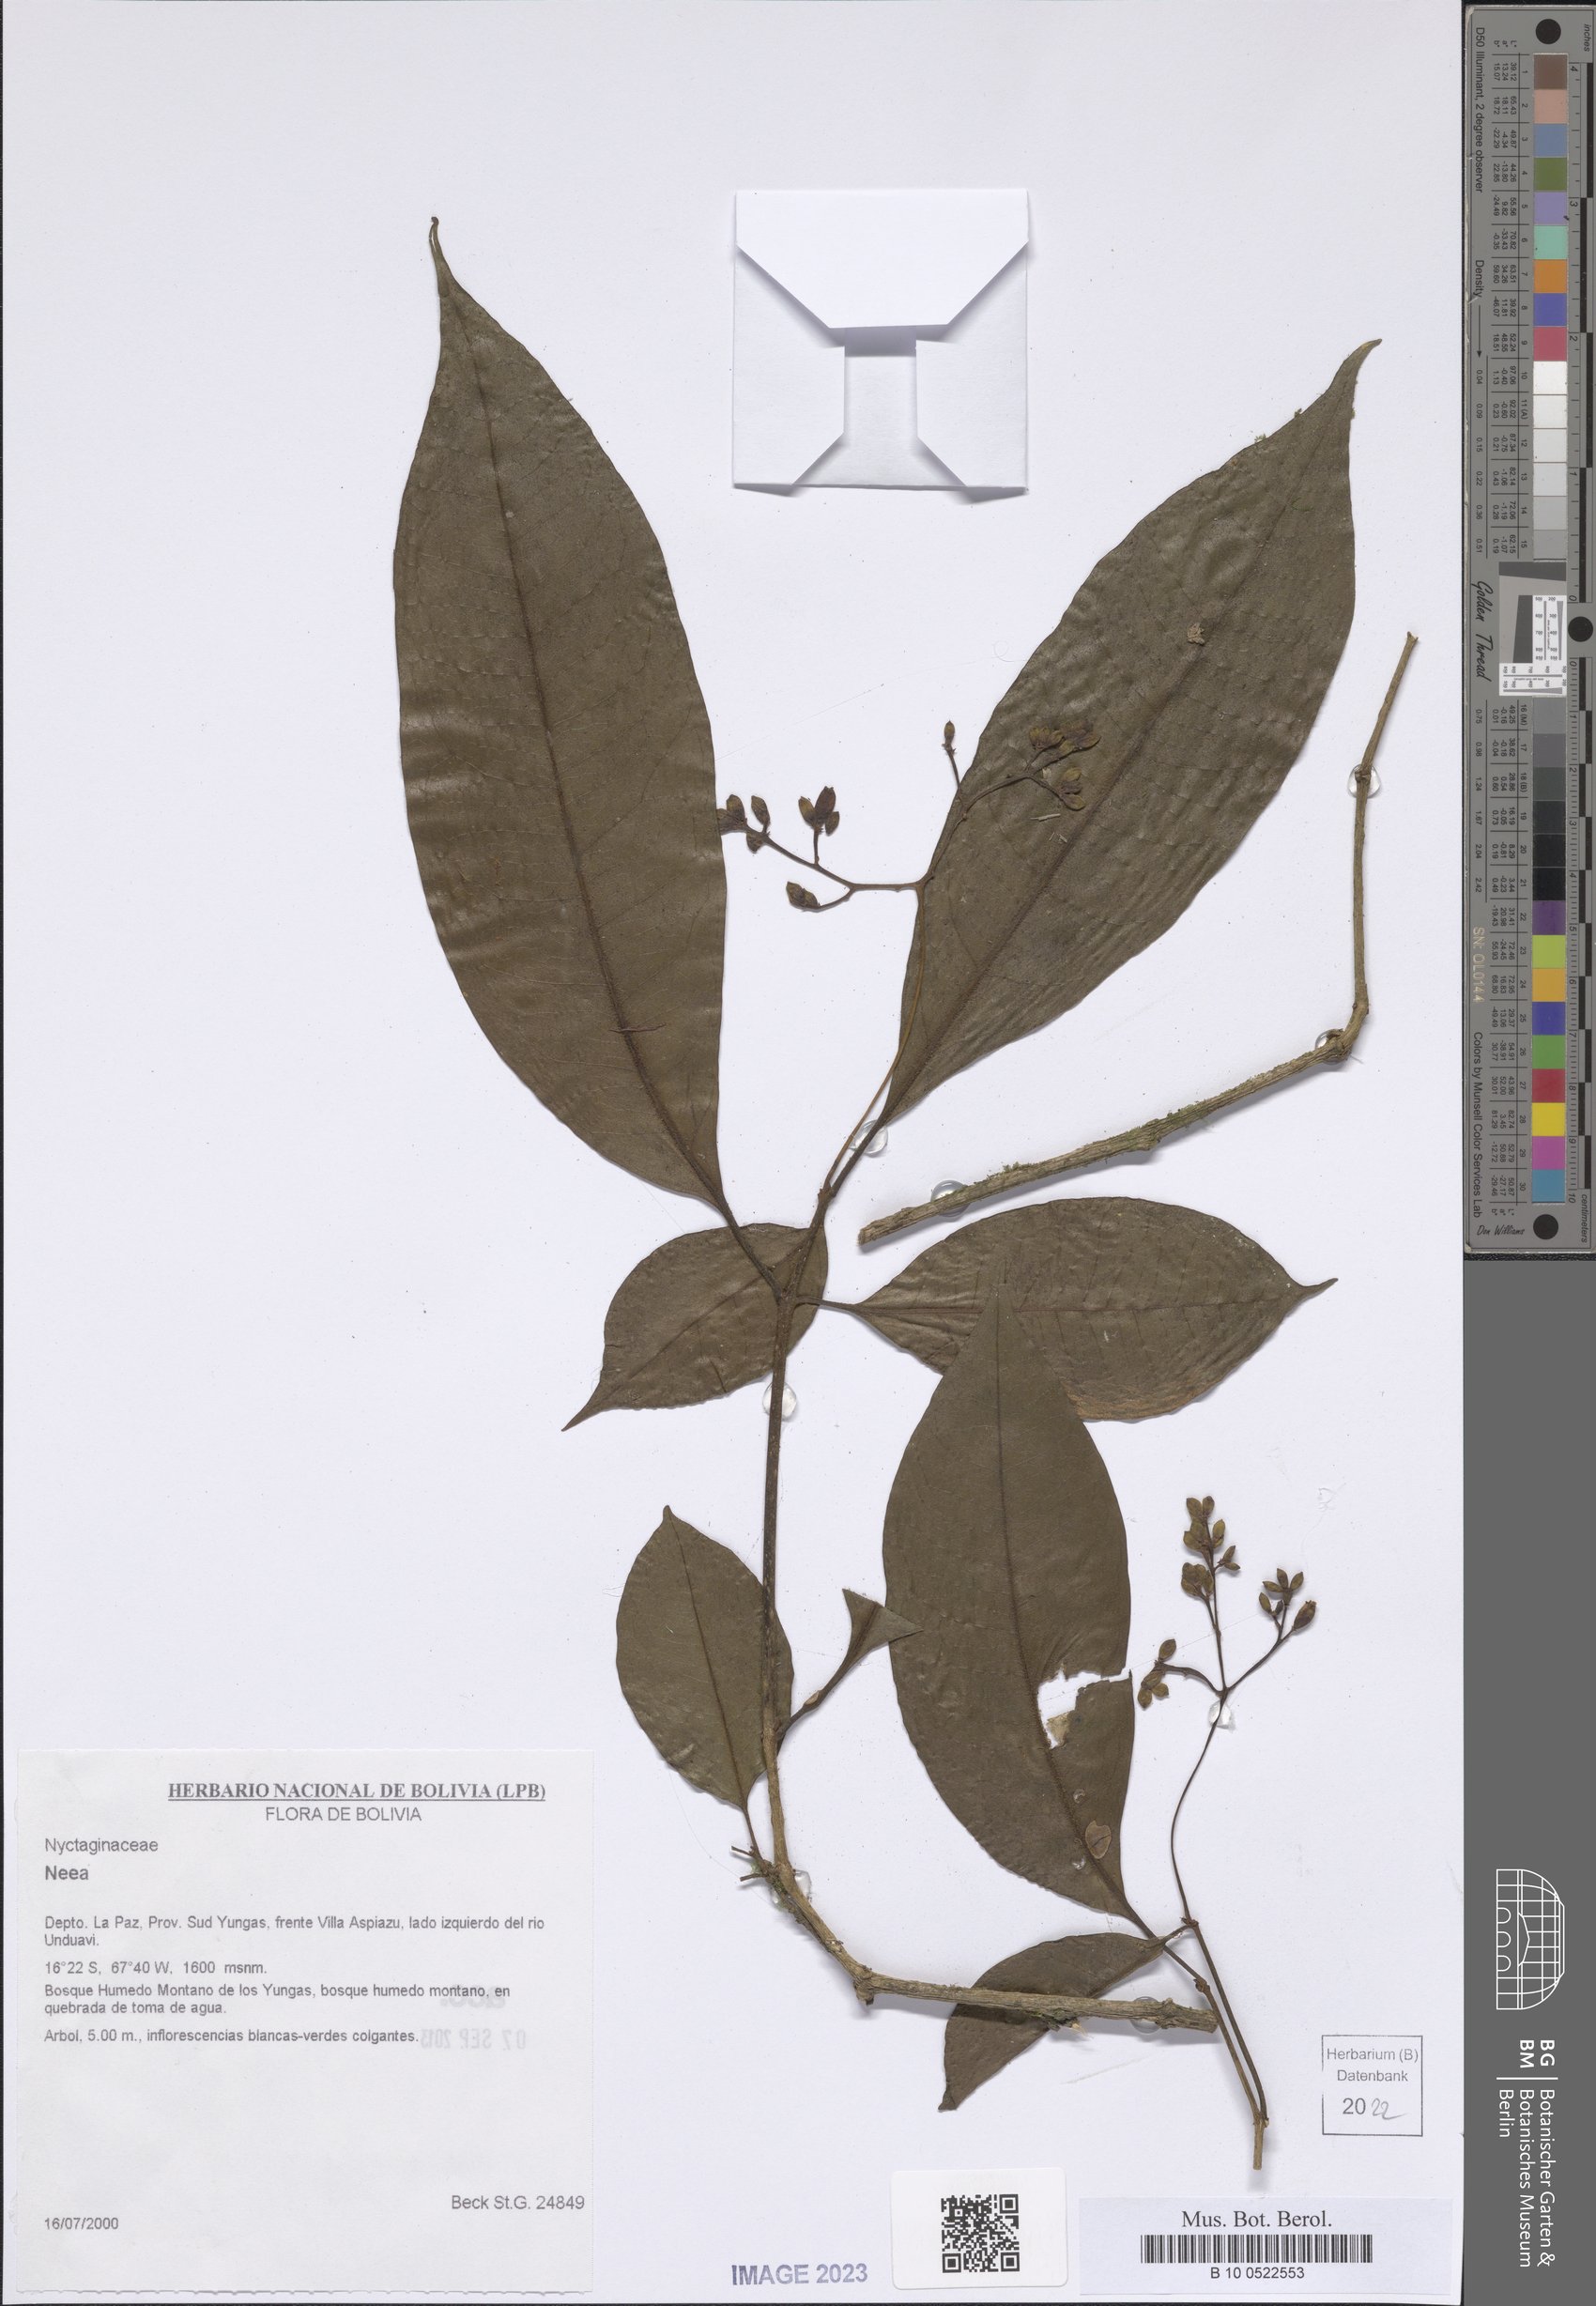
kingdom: Plantae
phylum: Tracheophyta
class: Magnoliopsida
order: Caryophyllales
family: Nyctaginaceae
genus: Neea
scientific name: Neea
